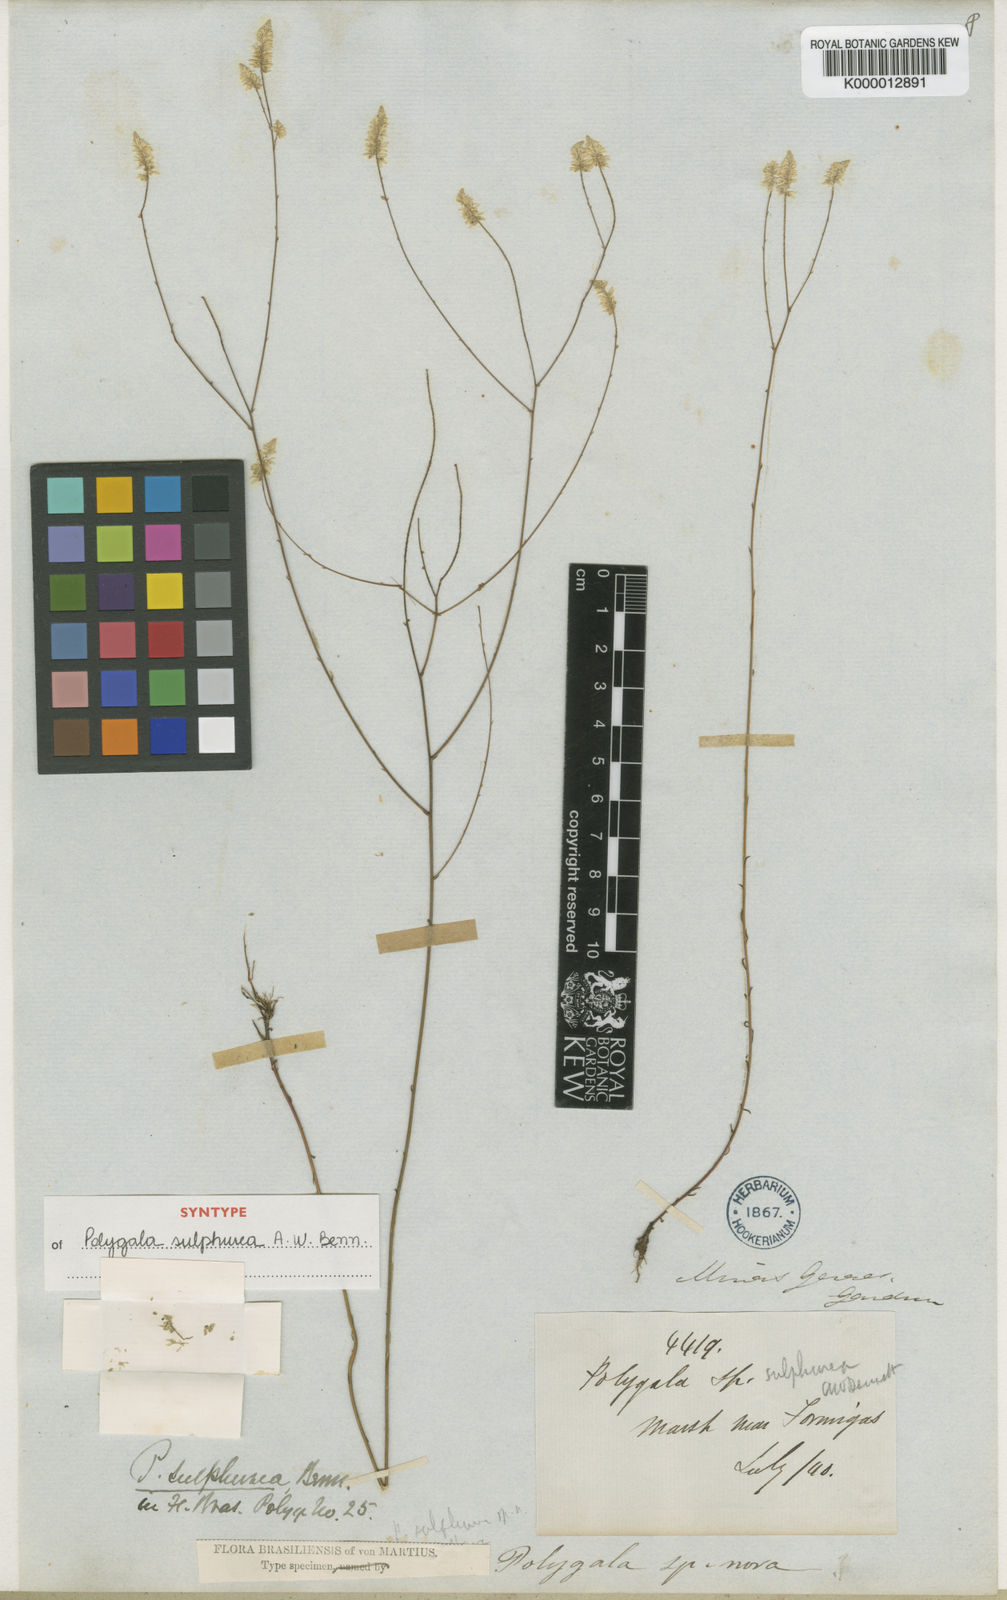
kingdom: Plantae
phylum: Tracheophyta
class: Magnoliopsida
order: Fabales
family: Polygalaceae
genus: Polygala
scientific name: Polygala tenuis
